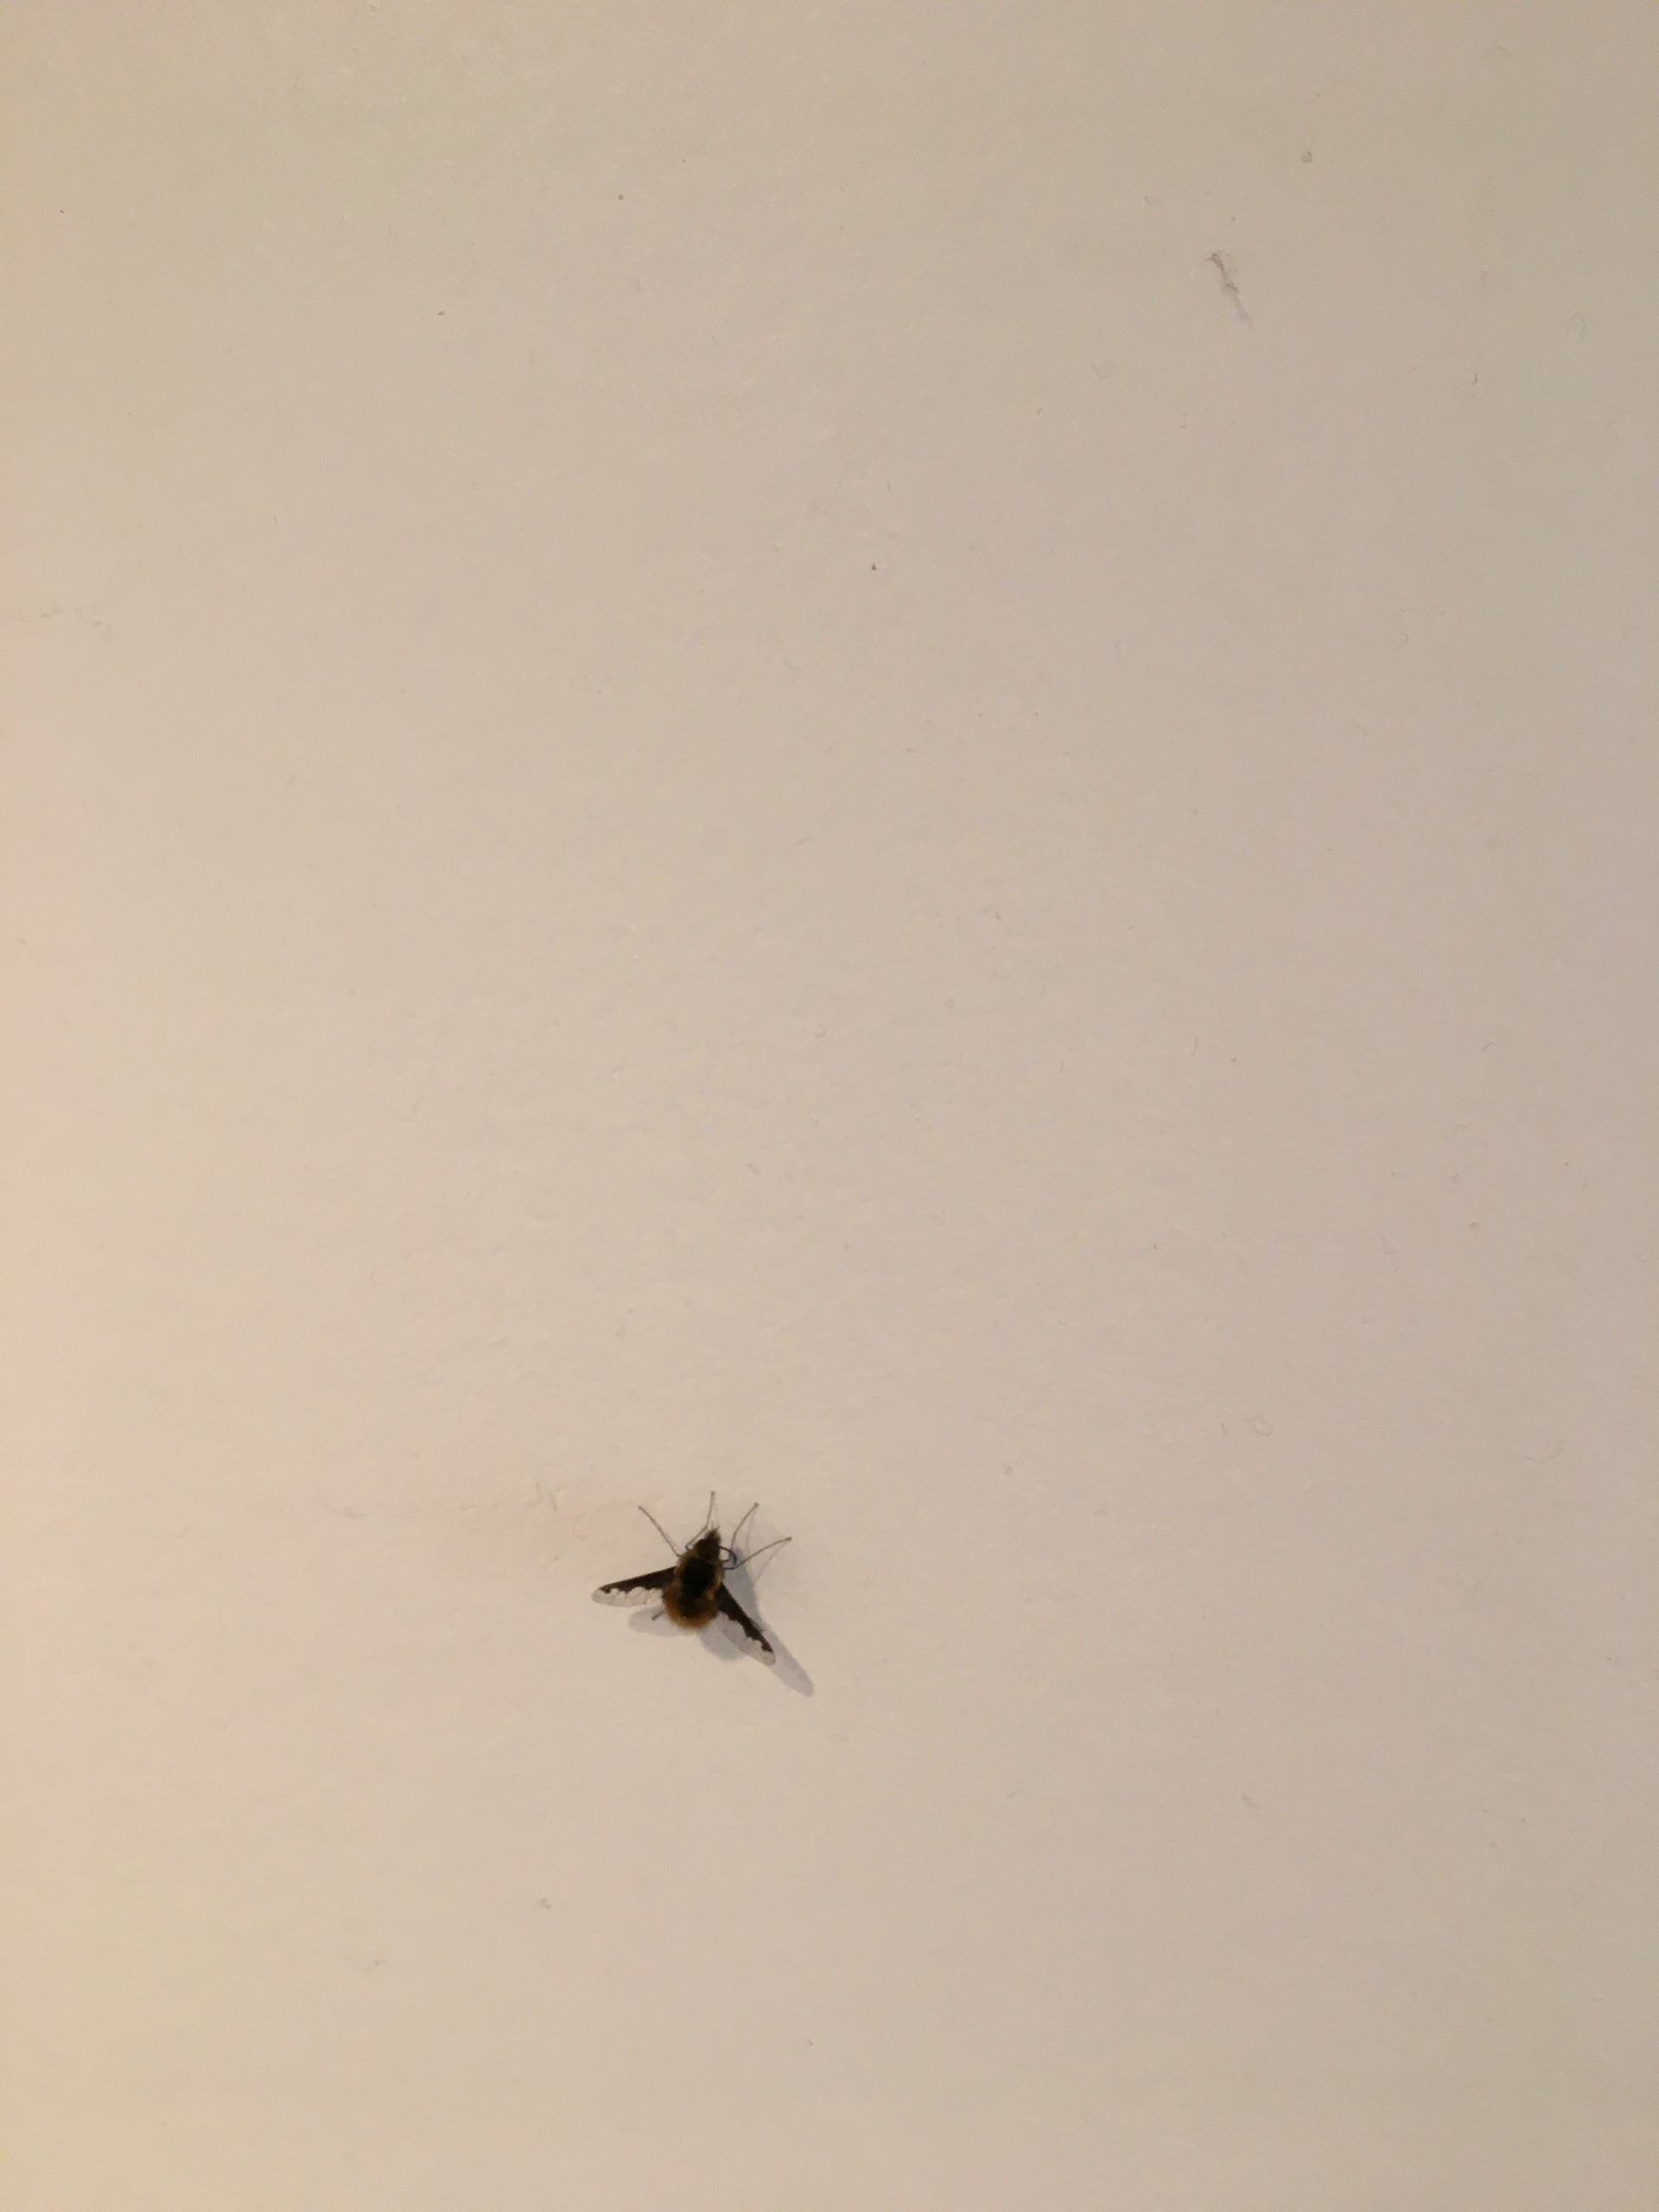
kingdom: Animalia
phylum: Arthropoda
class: Insecta
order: Diptera
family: Bombyliidae
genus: Bombylius
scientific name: Bombylius major
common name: Stor humleflue
